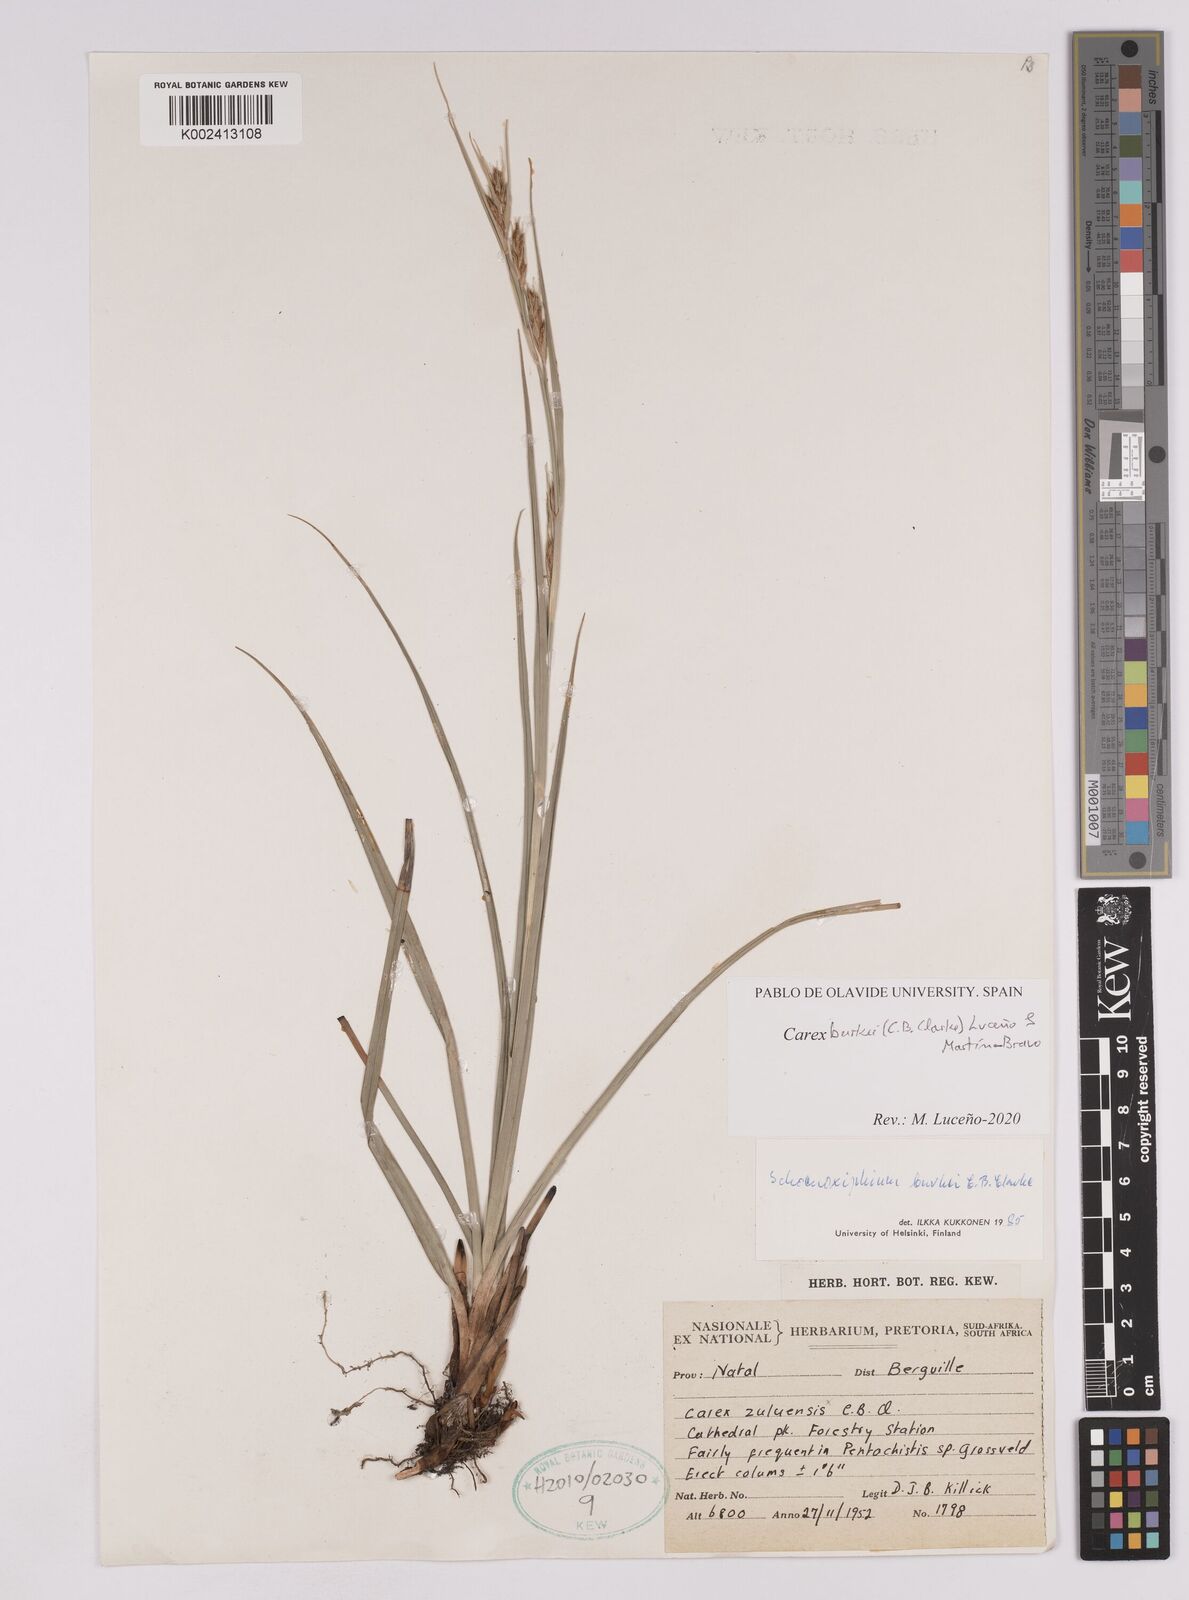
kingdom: Plantae
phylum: Tracheophyta
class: Liliopsida
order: Poales
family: Cyperaceae
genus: Carex
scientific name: Carex burkei
